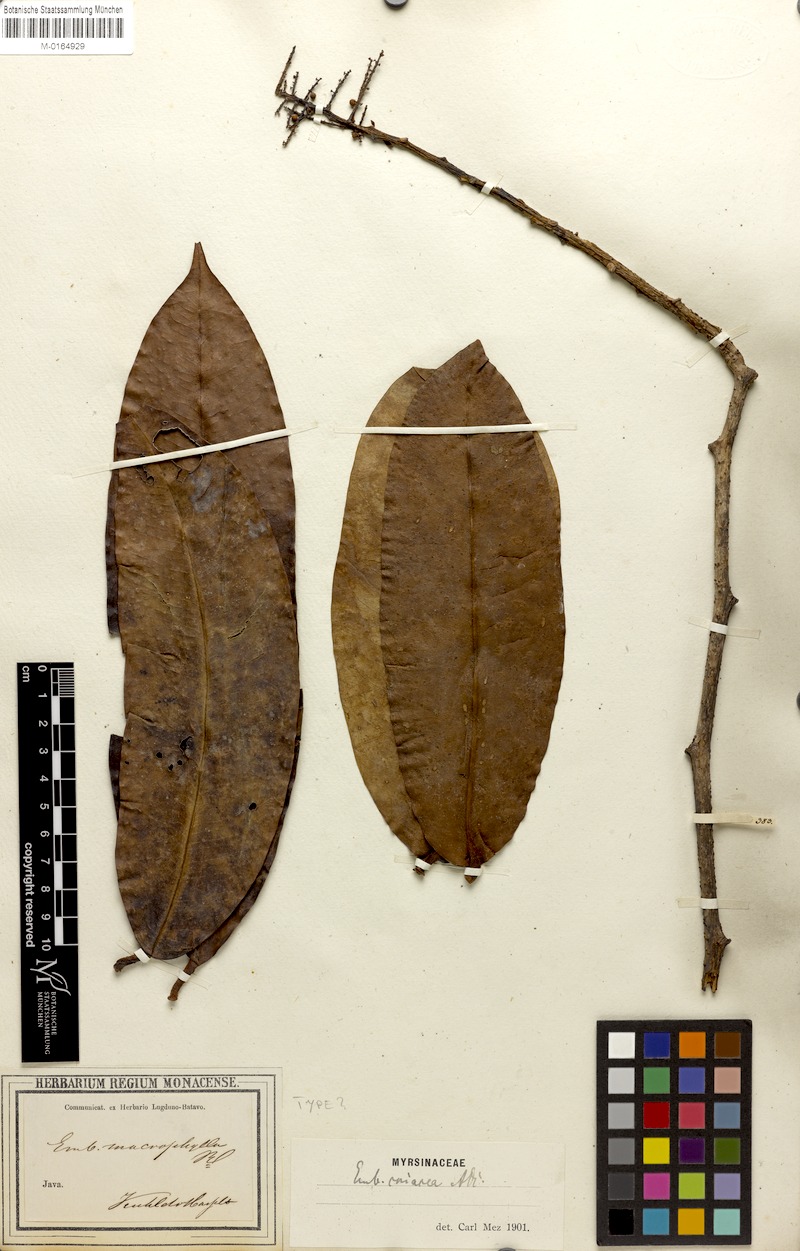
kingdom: Plantae
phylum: Tracheophyta
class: Magnoliopsida
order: Ericales
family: Primulaceae
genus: Embelia
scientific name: Embelia coriacea
